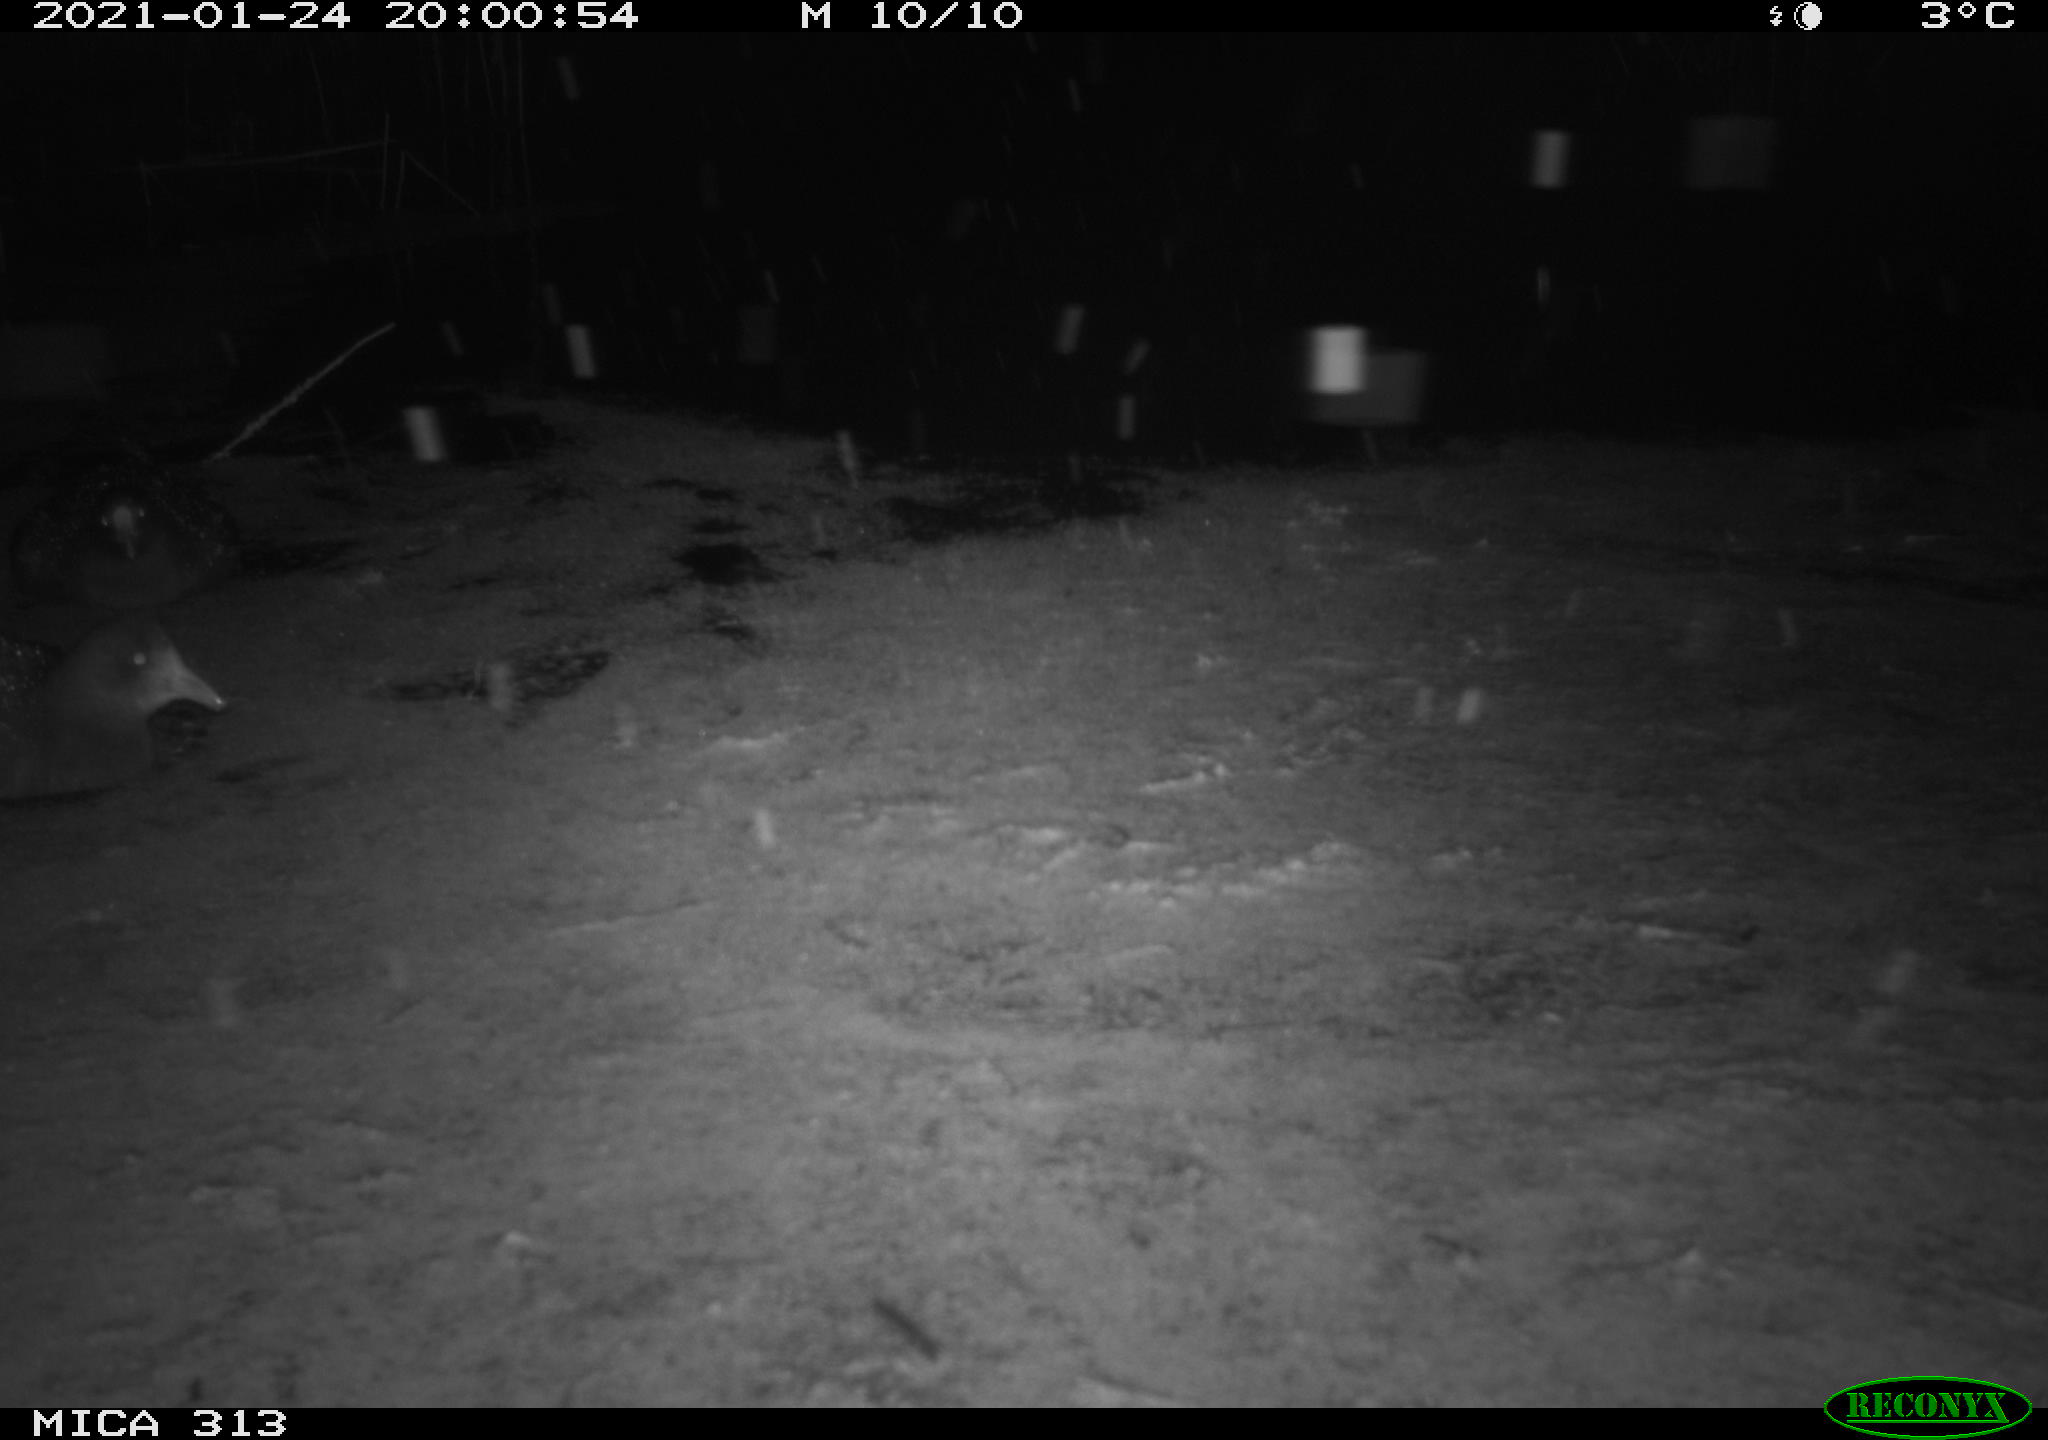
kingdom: Animalia
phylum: Chordata
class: Aves
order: Gruiformes
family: Rallidae
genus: Gallinula
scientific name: Gallinula chloropus
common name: Common moorhen
